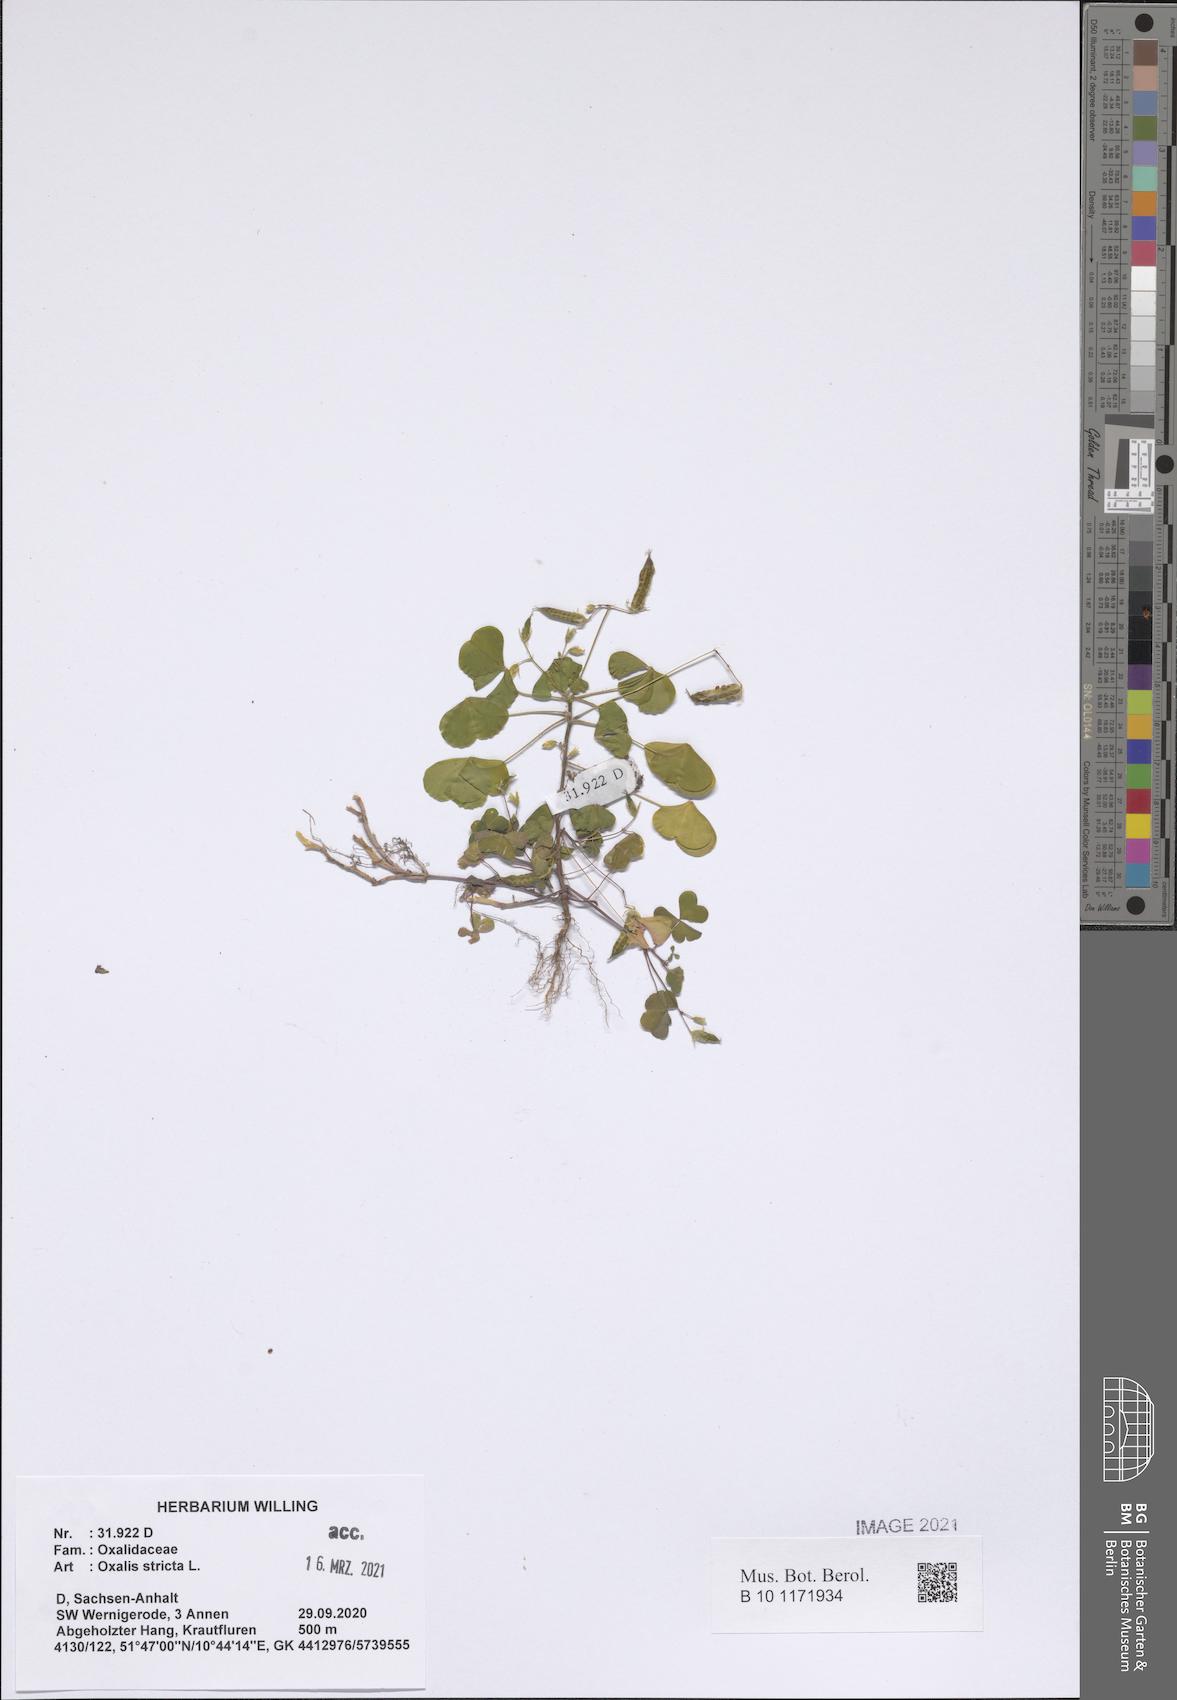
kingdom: Plantae
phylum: Tracheophyta
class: Magnoliopsida
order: Oxalidales
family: Oxalidaceae
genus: Oxalis
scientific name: Oxalis stricta
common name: Upright yellow-sorrel
